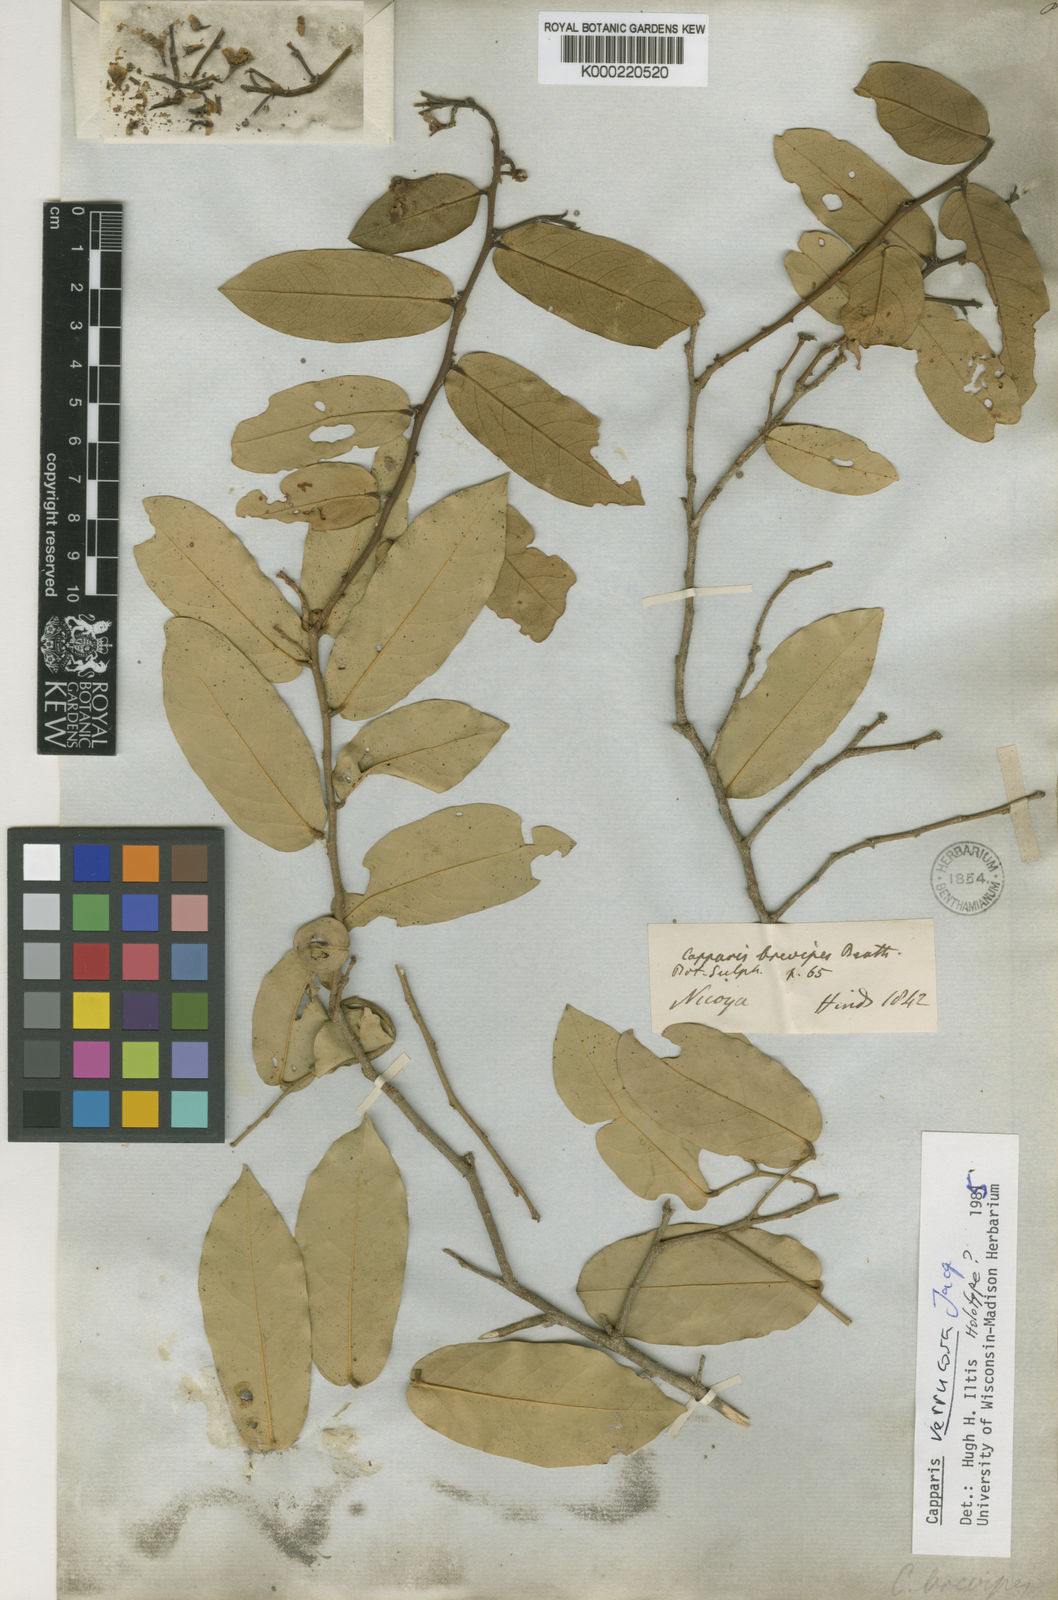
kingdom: Plantae
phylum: Tracheophyta
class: Magnoliopsida
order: Brassicales
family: Capparaceae
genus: Cynophalla
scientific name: Cynophalla verrucosa
